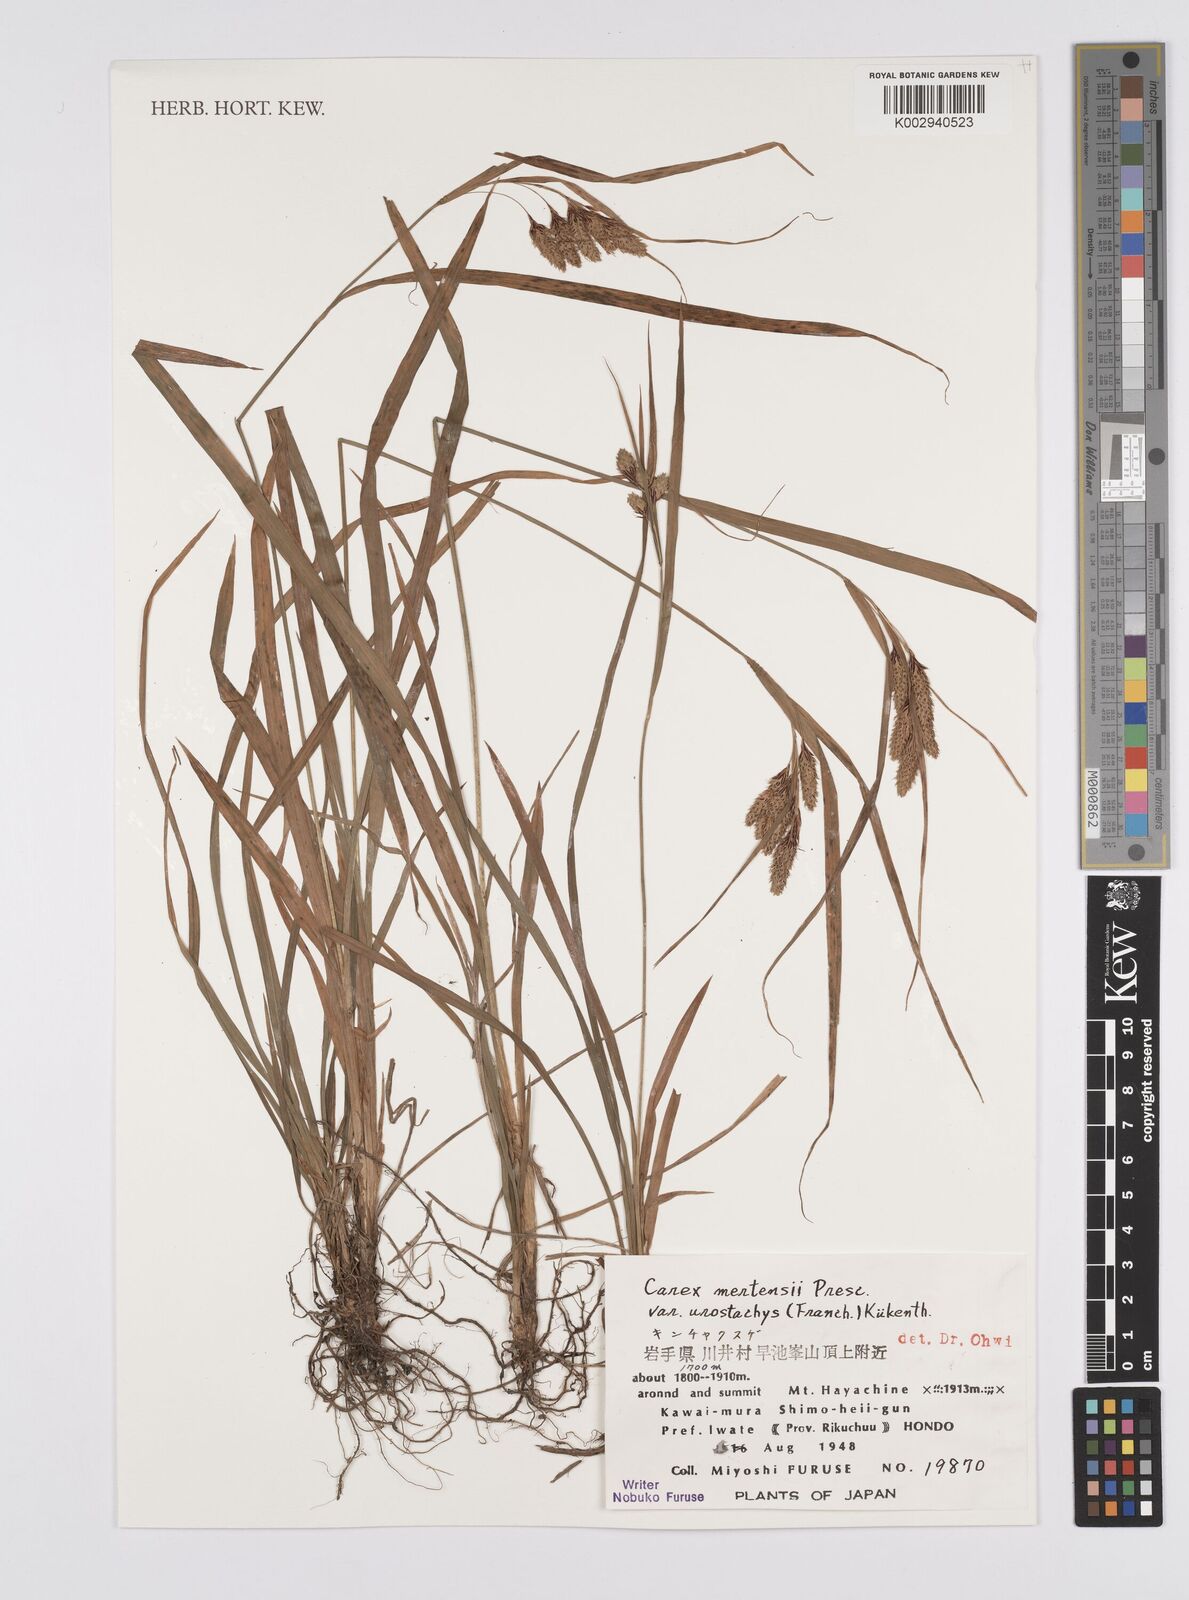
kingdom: Plantae
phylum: Tracheophyta
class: Liliopsida
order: Poales
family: Cyperaceae
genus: Carex
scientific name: Carex mertensii
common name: Mertens' sedge
